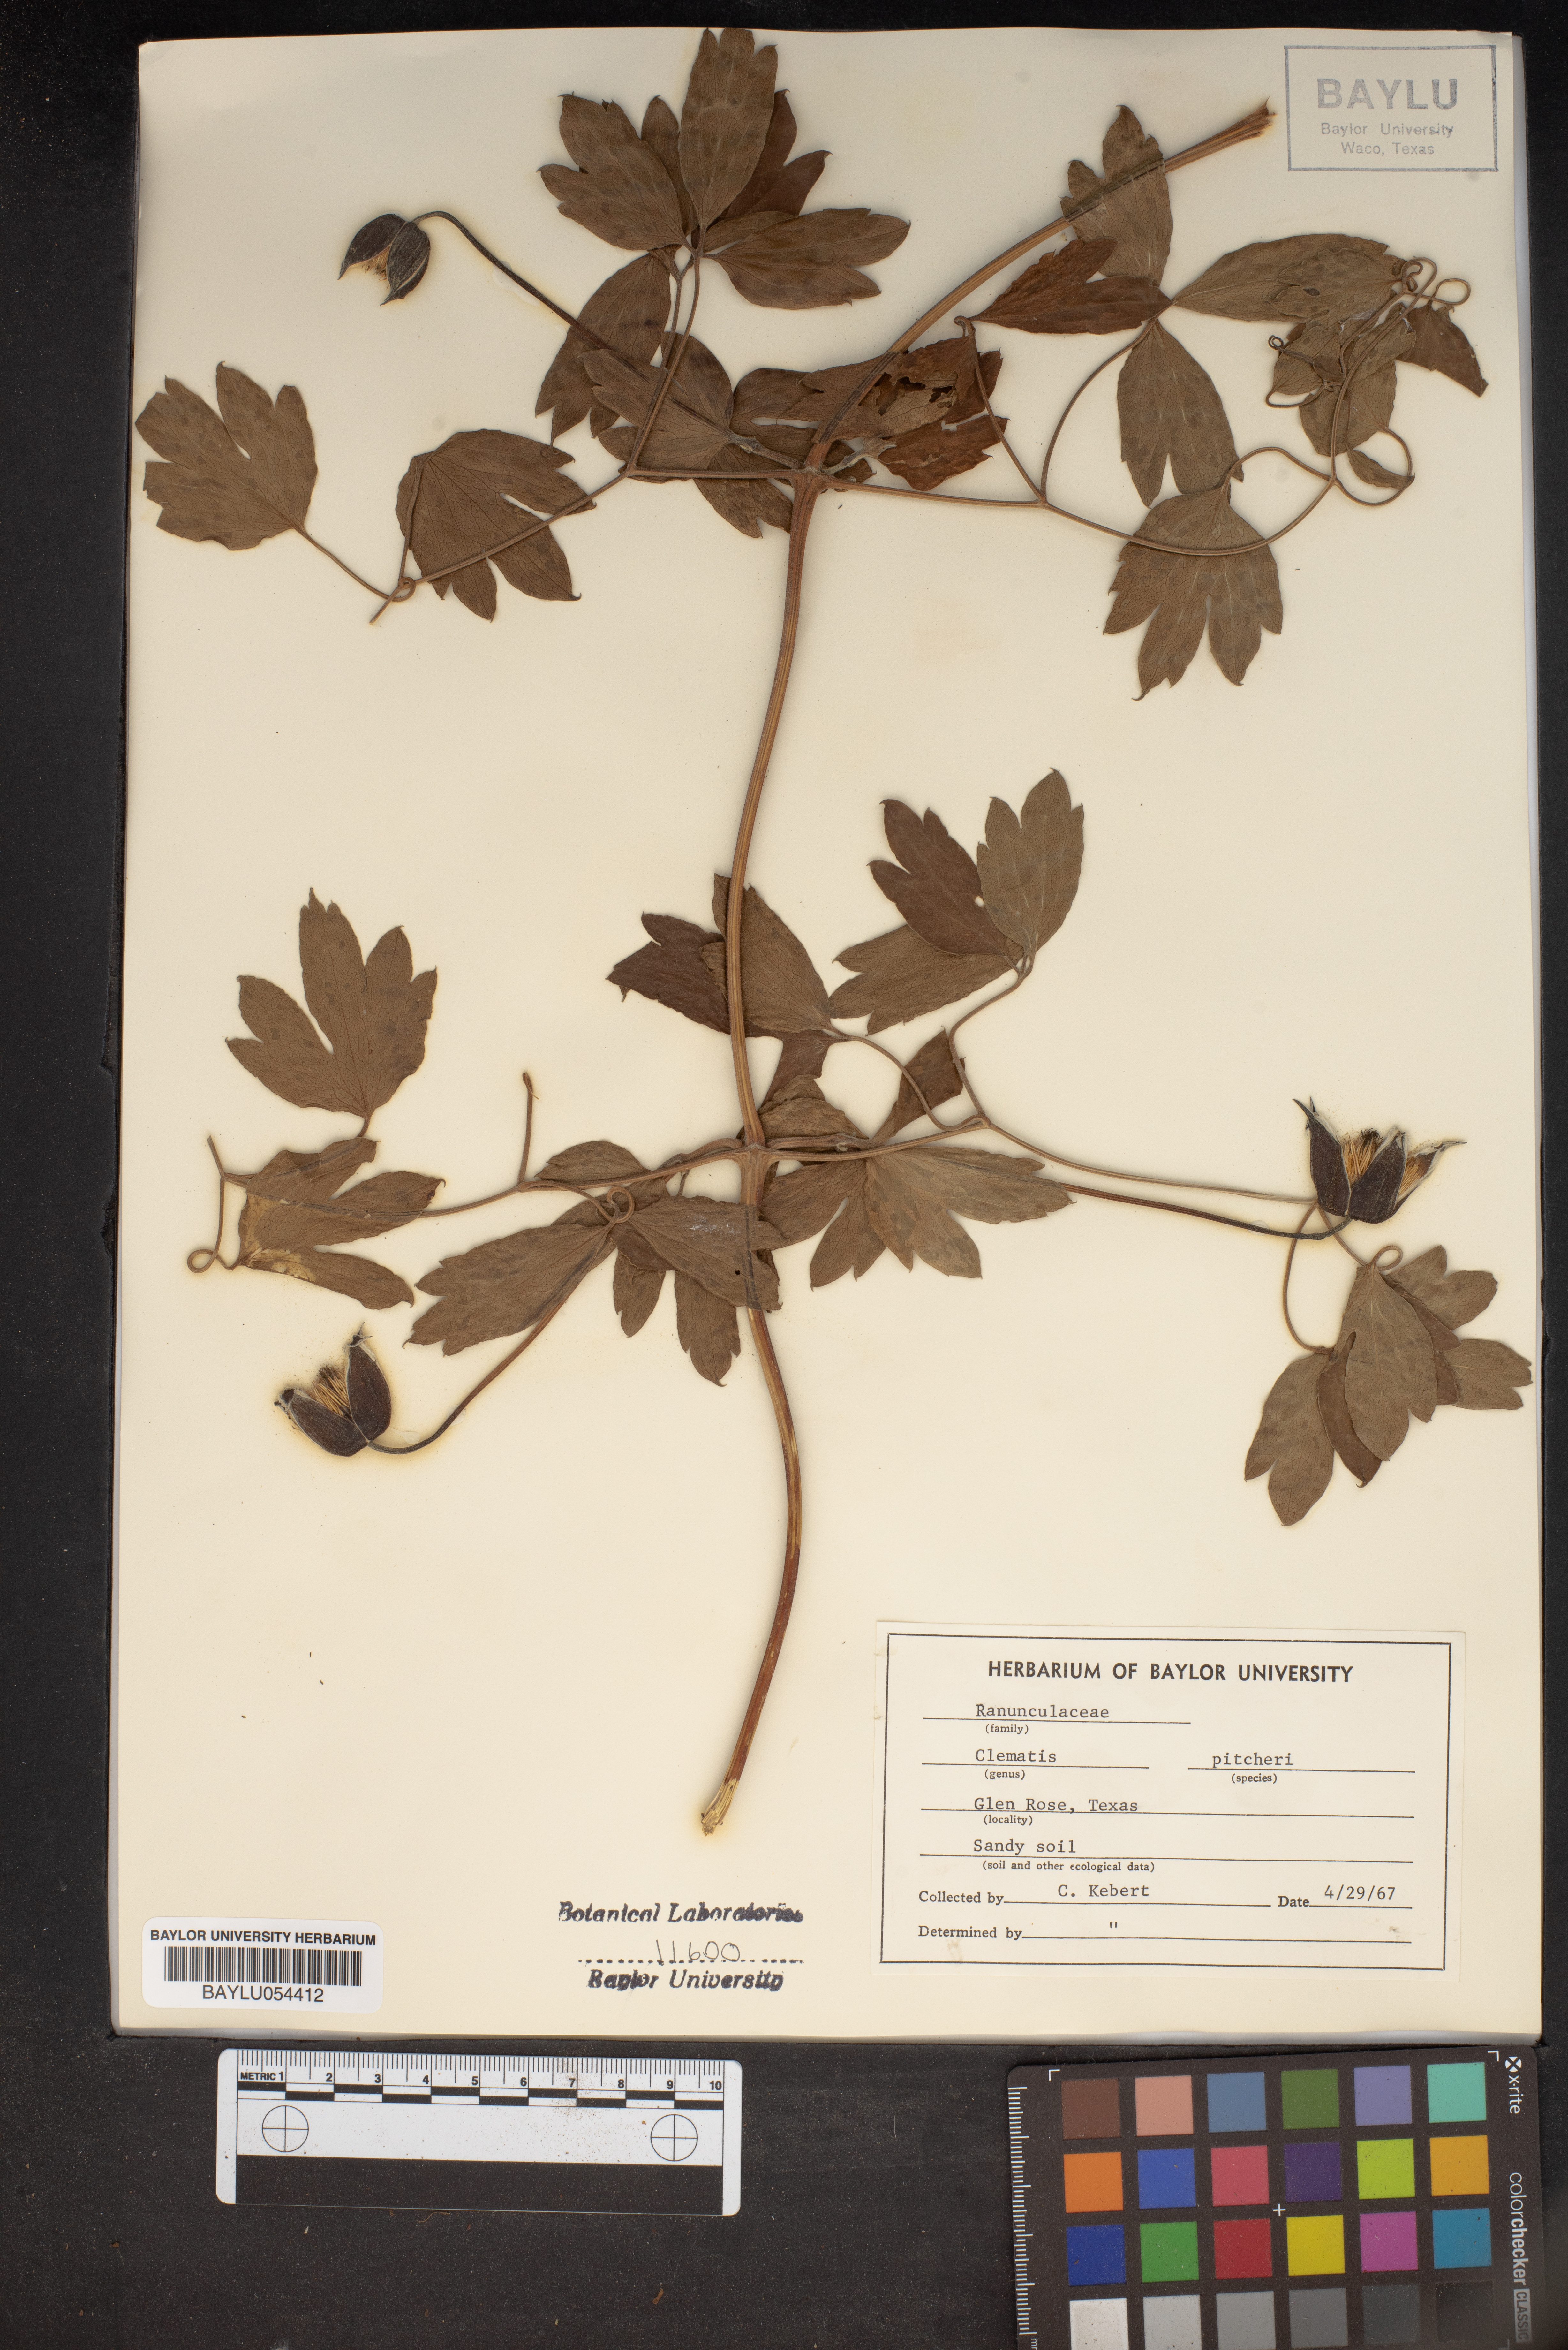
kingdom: Plantae
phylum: Tracheophyta
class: Magnoliopsida
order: Ranunculales
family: Ranunculaceae
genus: Clematis
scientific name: Clematis pitcheri
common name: Bellflower clematis
